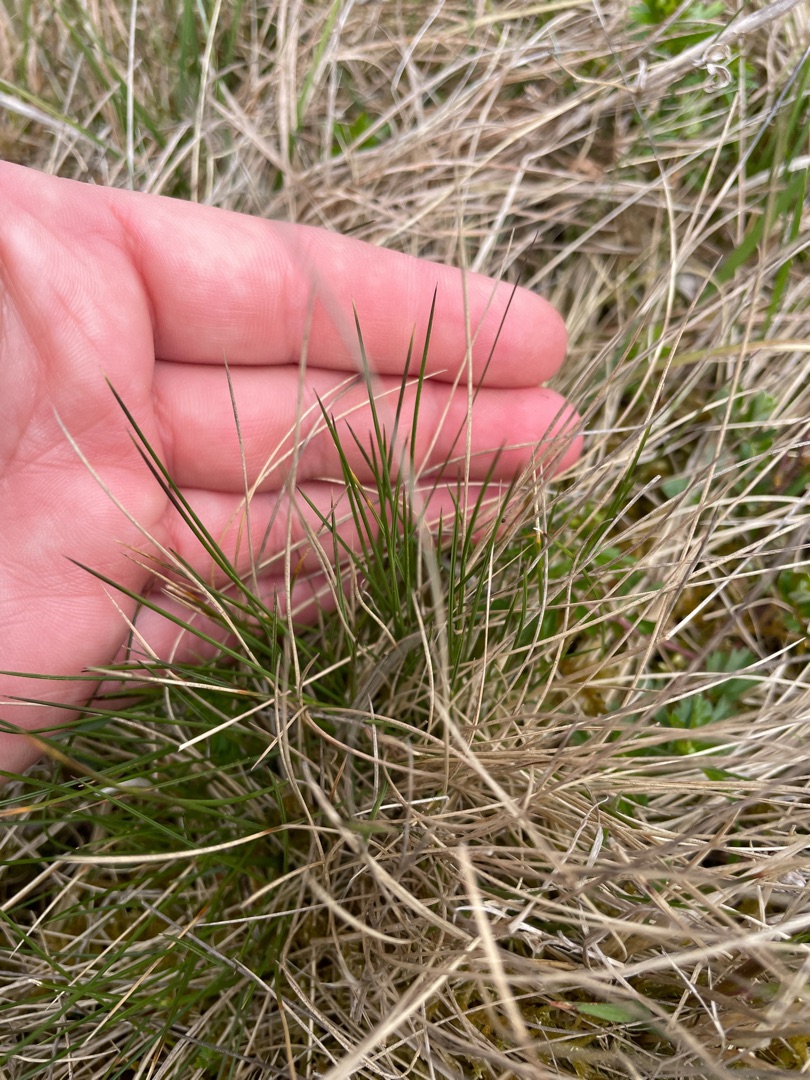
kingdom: Plantae
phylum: Tracheophyta
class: Liliopsida
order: Poales
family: Poaceae
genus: Nardus
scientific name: Nardus stricta
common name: Katteskæg
